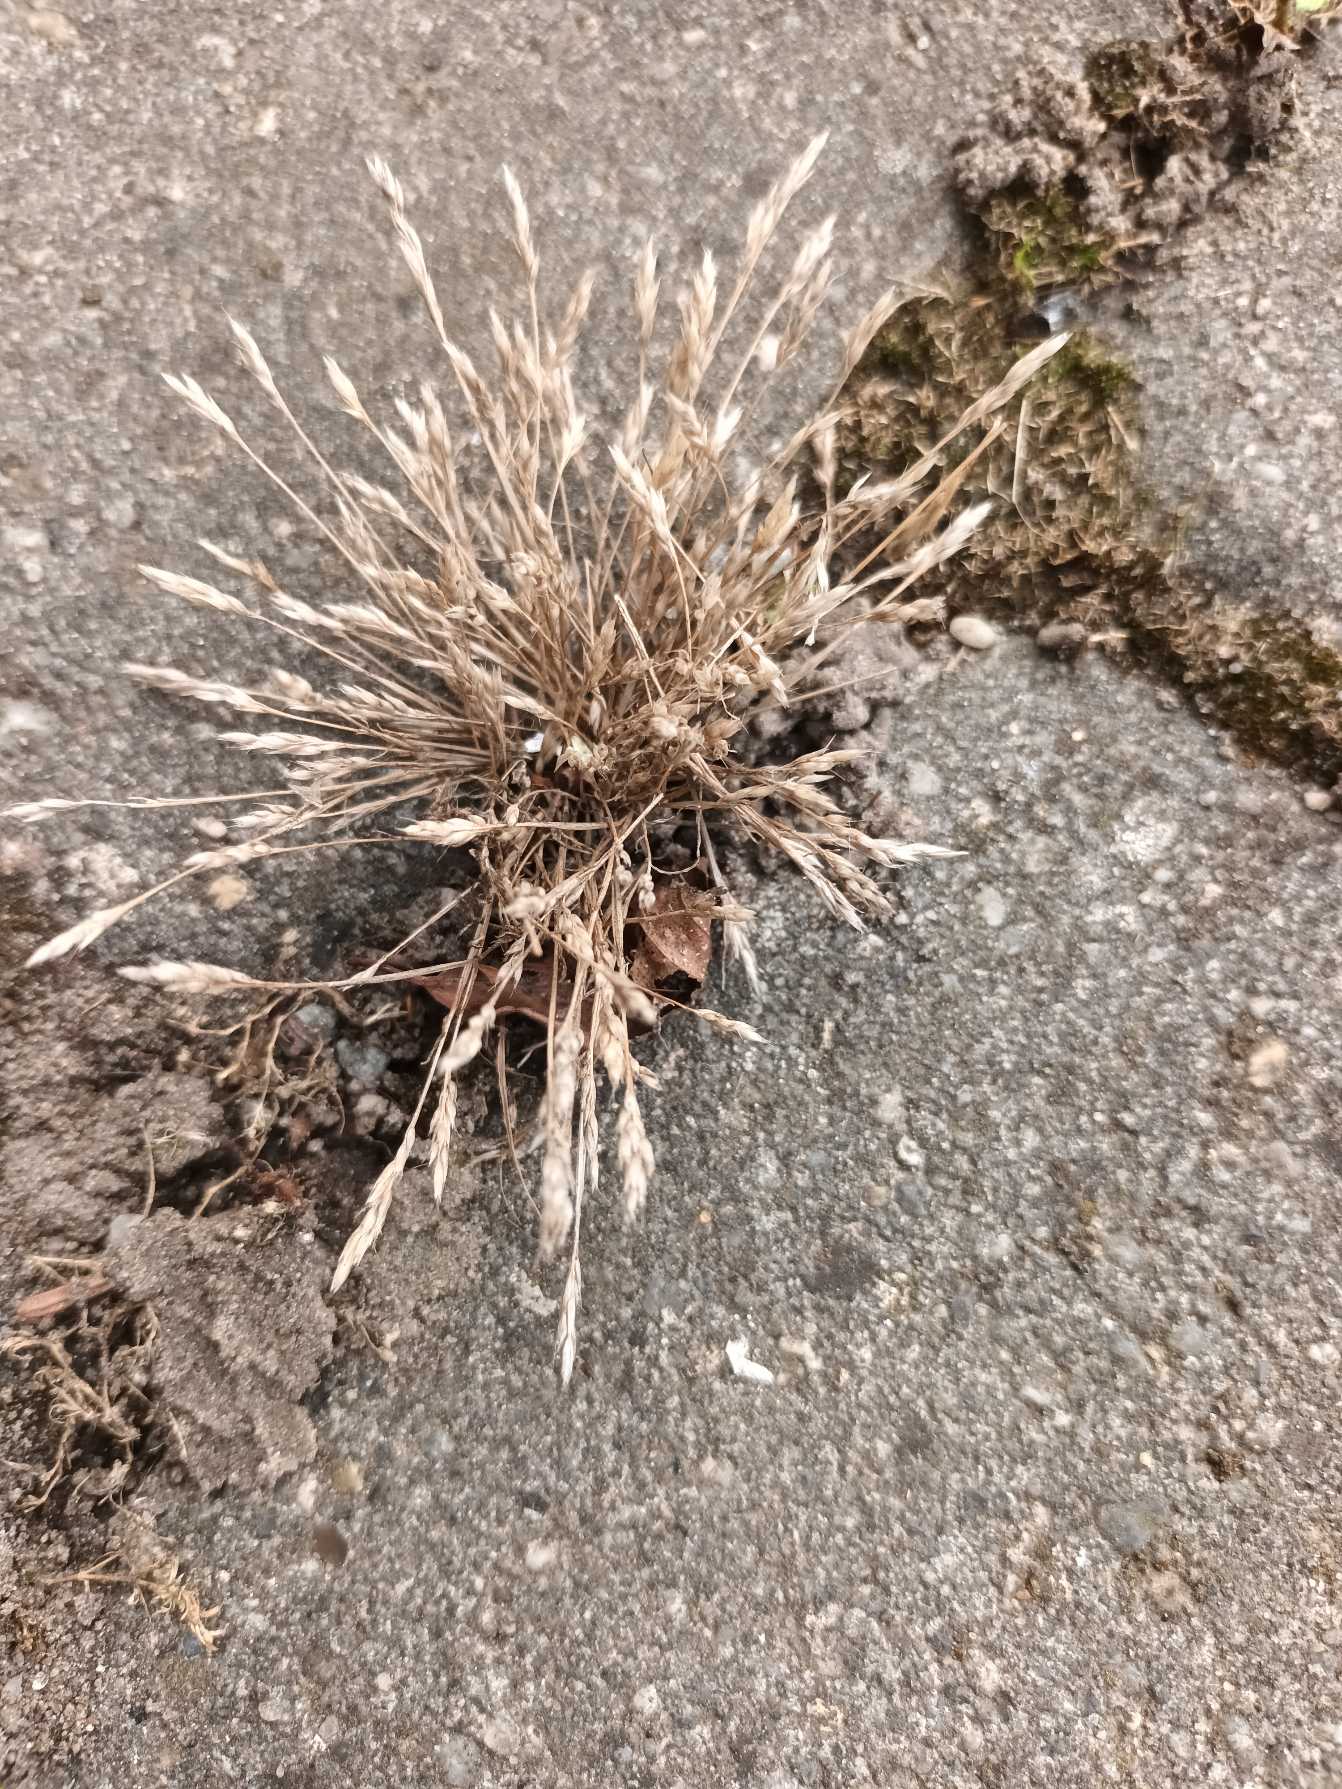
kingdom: Plantae
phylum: Tracheophyta
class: Liliopsida
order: Poales
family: Poaceae
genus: Aira
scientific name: Aira praecox
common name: Tidlig dværgbunke
